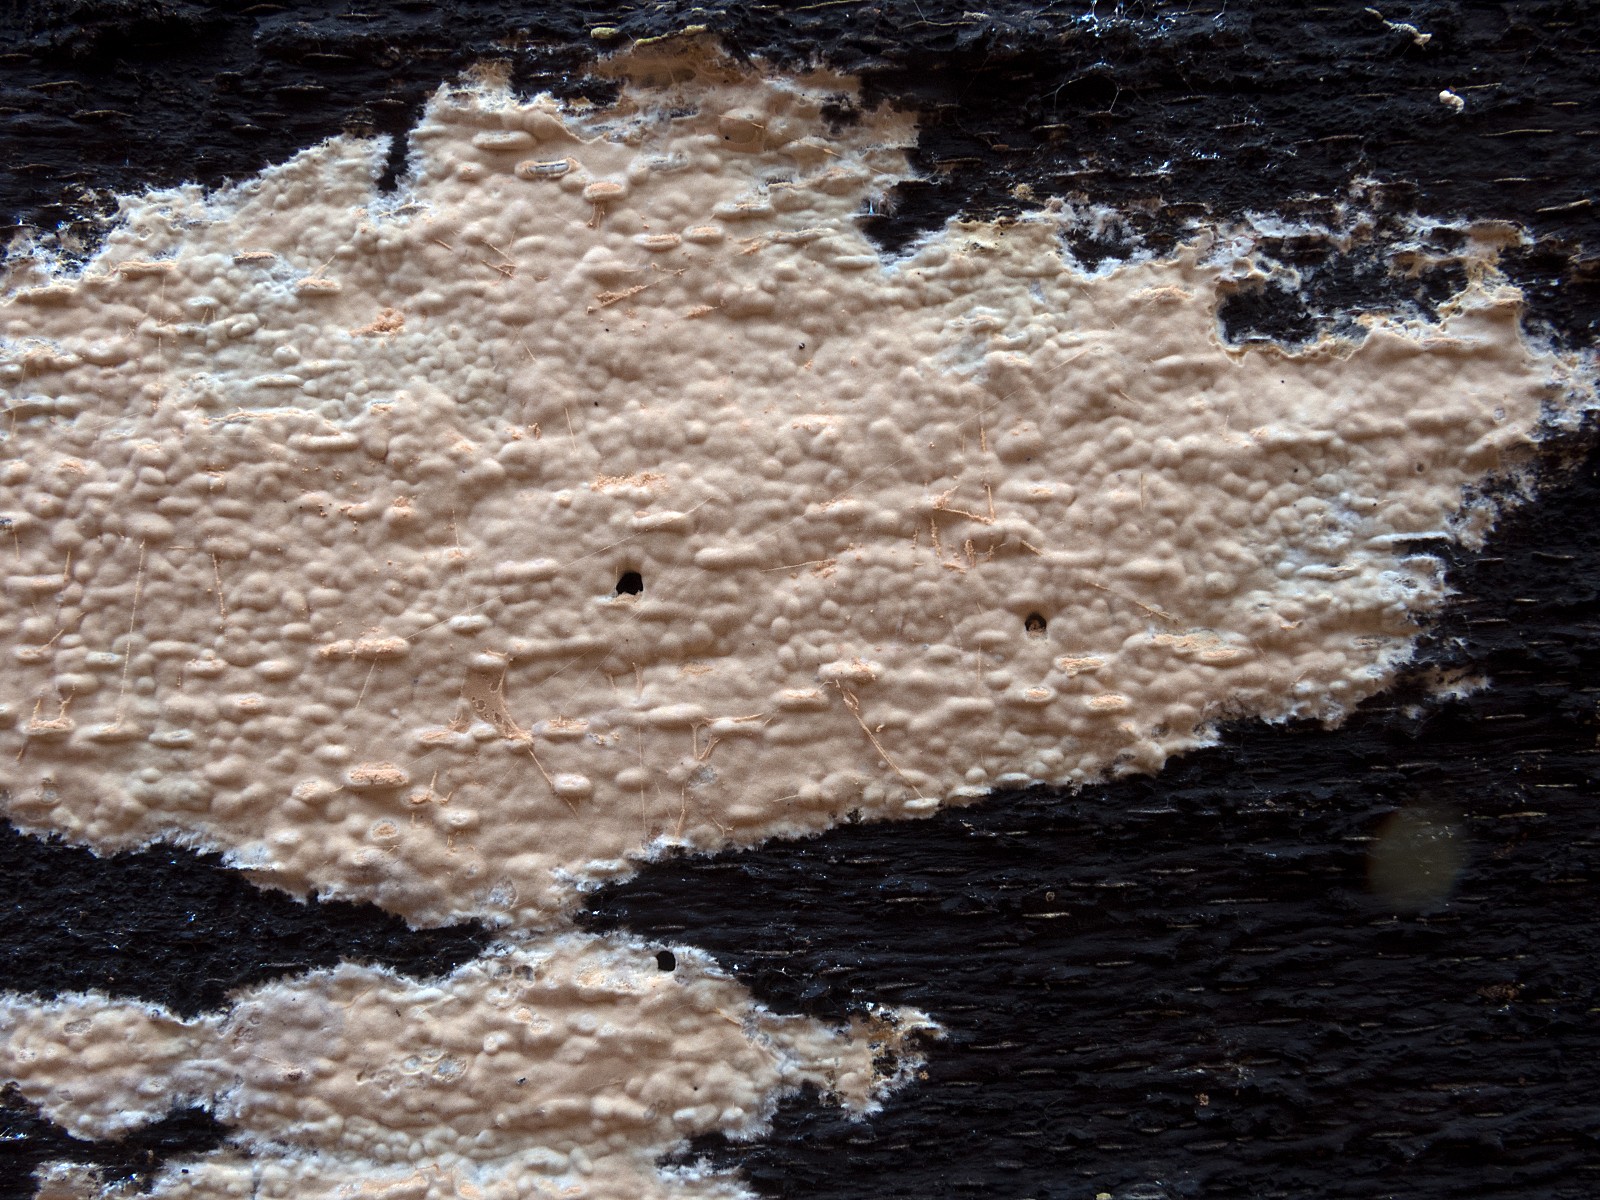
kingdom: Fungi
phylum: Basidiomycota
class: Agaricomycetes
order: Russulales
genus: Gloeohypochnicium
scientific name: Gloeohypochnicium analogum
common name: frugt-kalkskind
